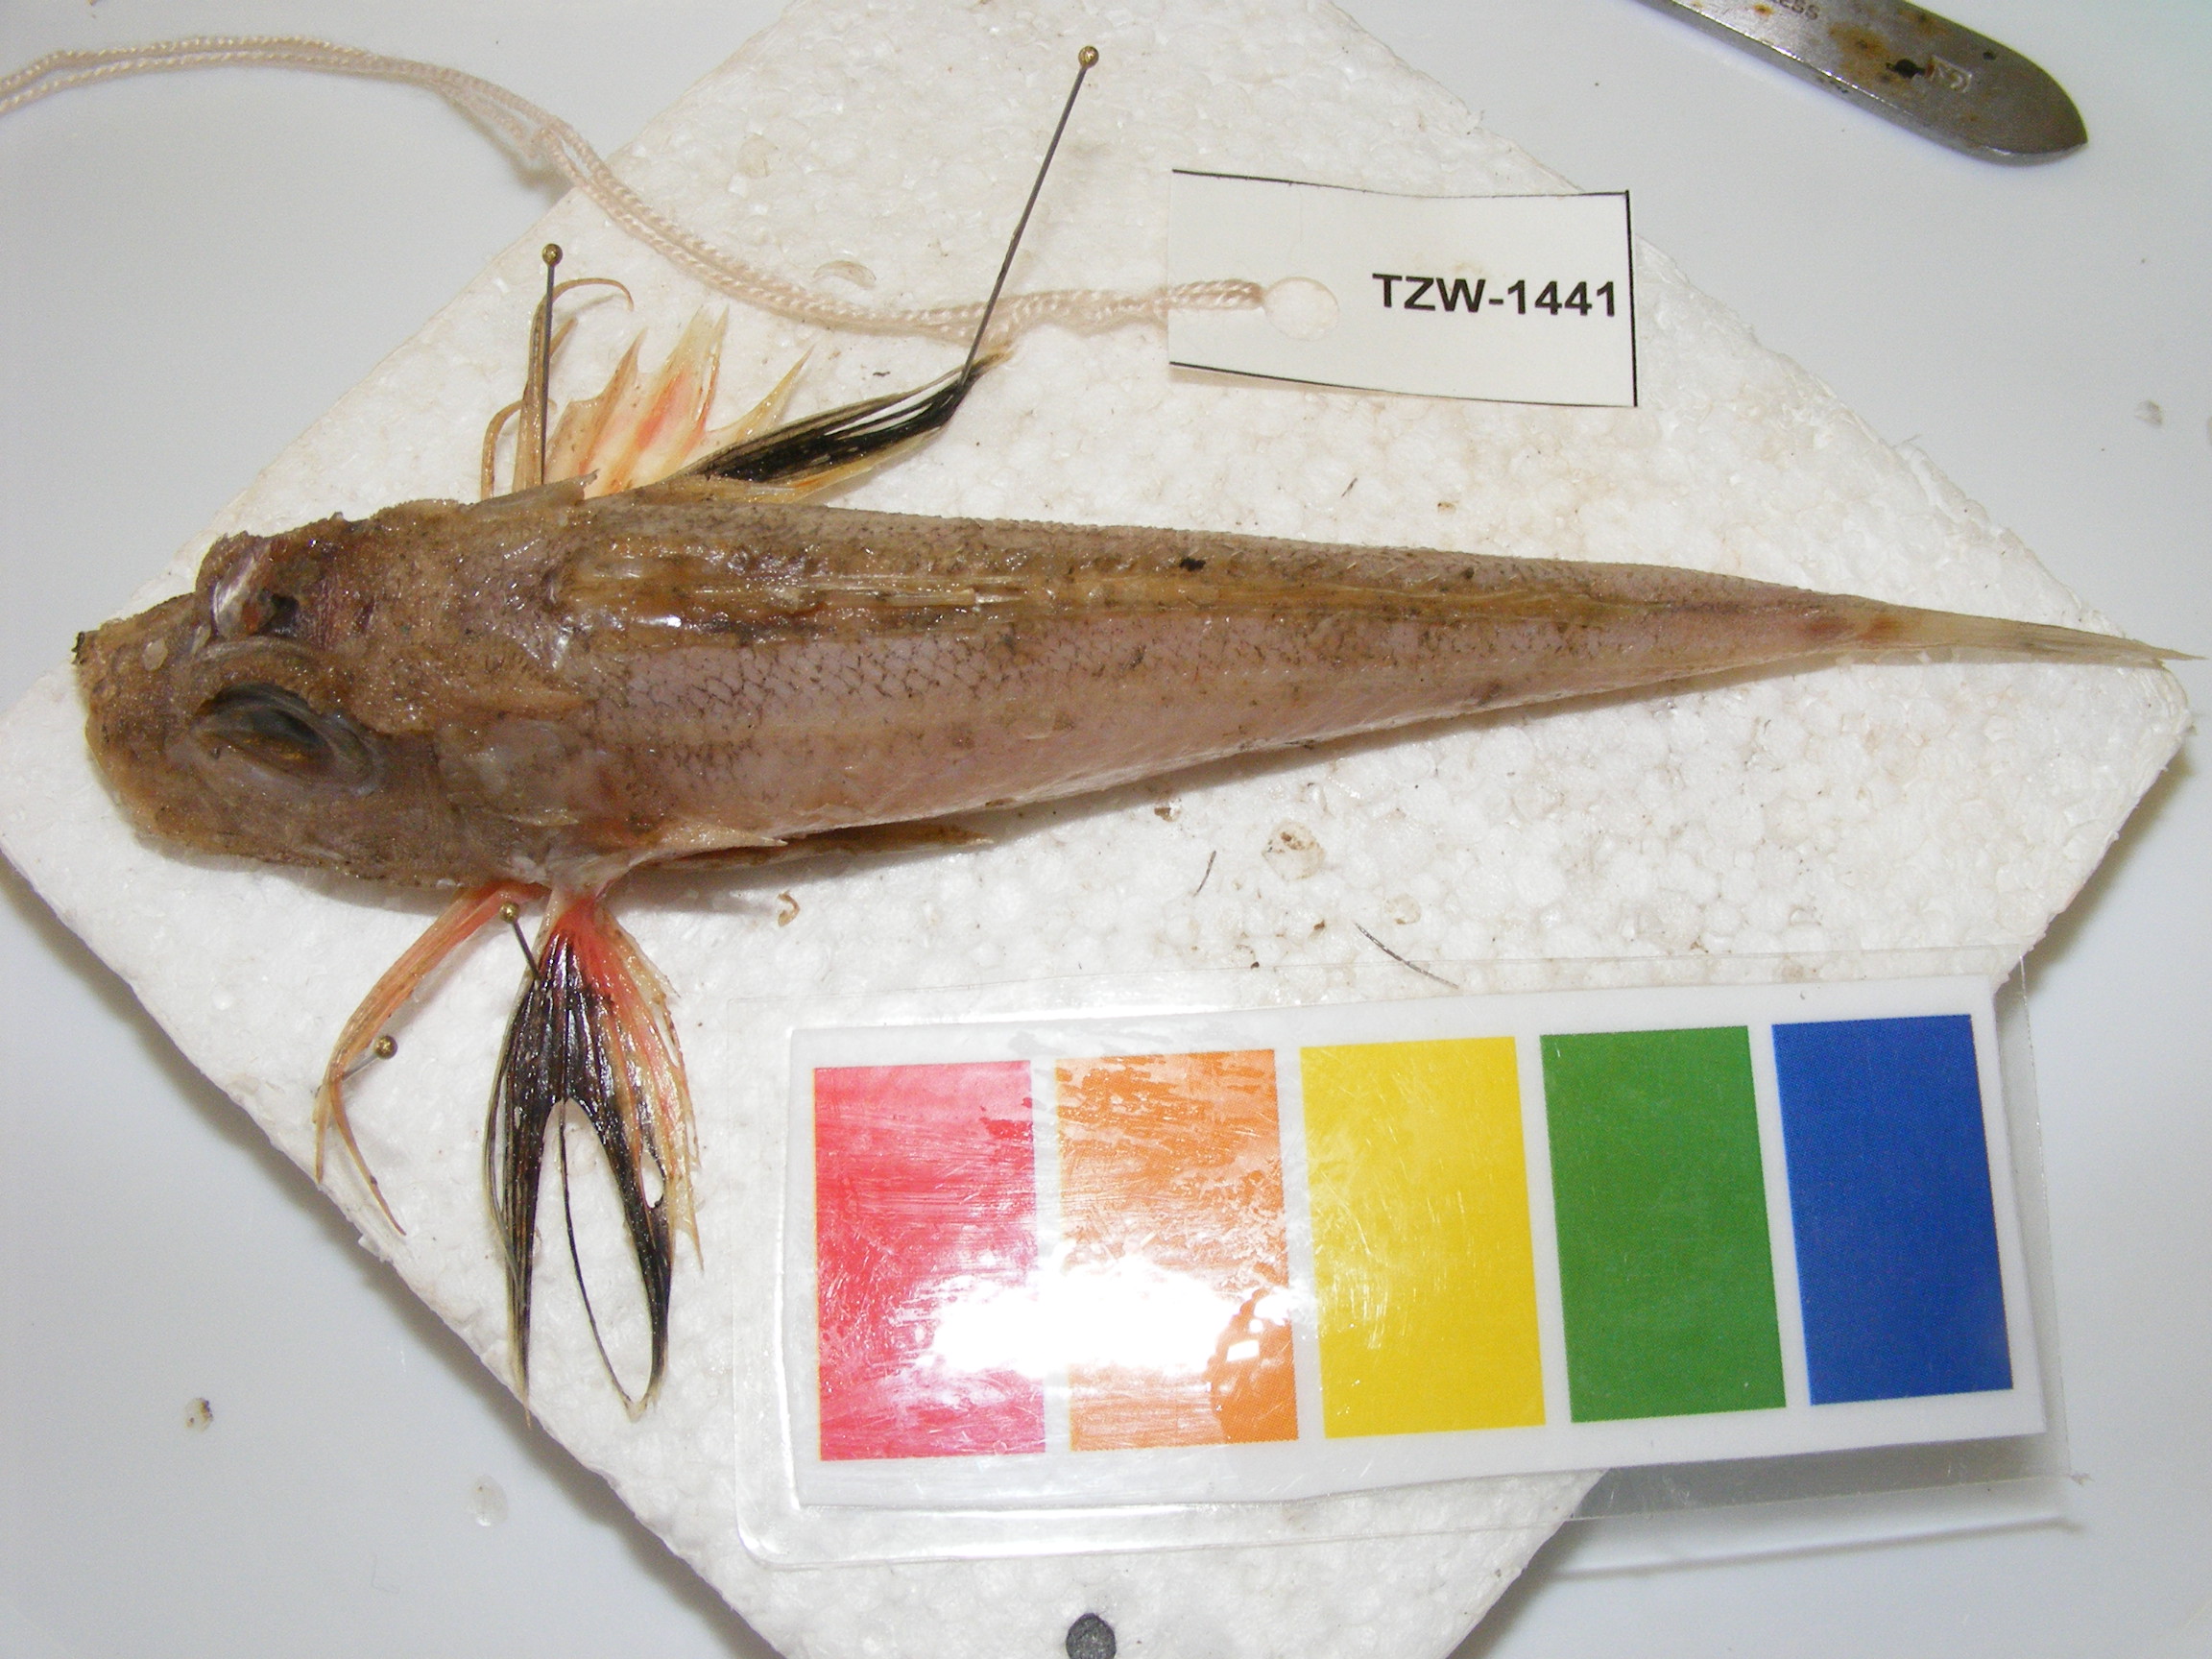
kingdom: Animalia
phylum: Chordata
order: Scorpaeniformes
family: Triglidae
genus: Lepidotrigla
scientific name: Lepidotrigla multispinosa
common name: Spiny gurnard
